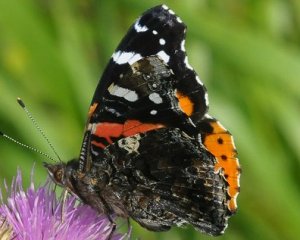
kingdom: Animalia
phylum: Arthropoda
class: Insecta
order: Lepidoptera
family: Nymphalidae
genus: Vanessa
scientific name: Vanessa atalanta
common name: Red Admiral
